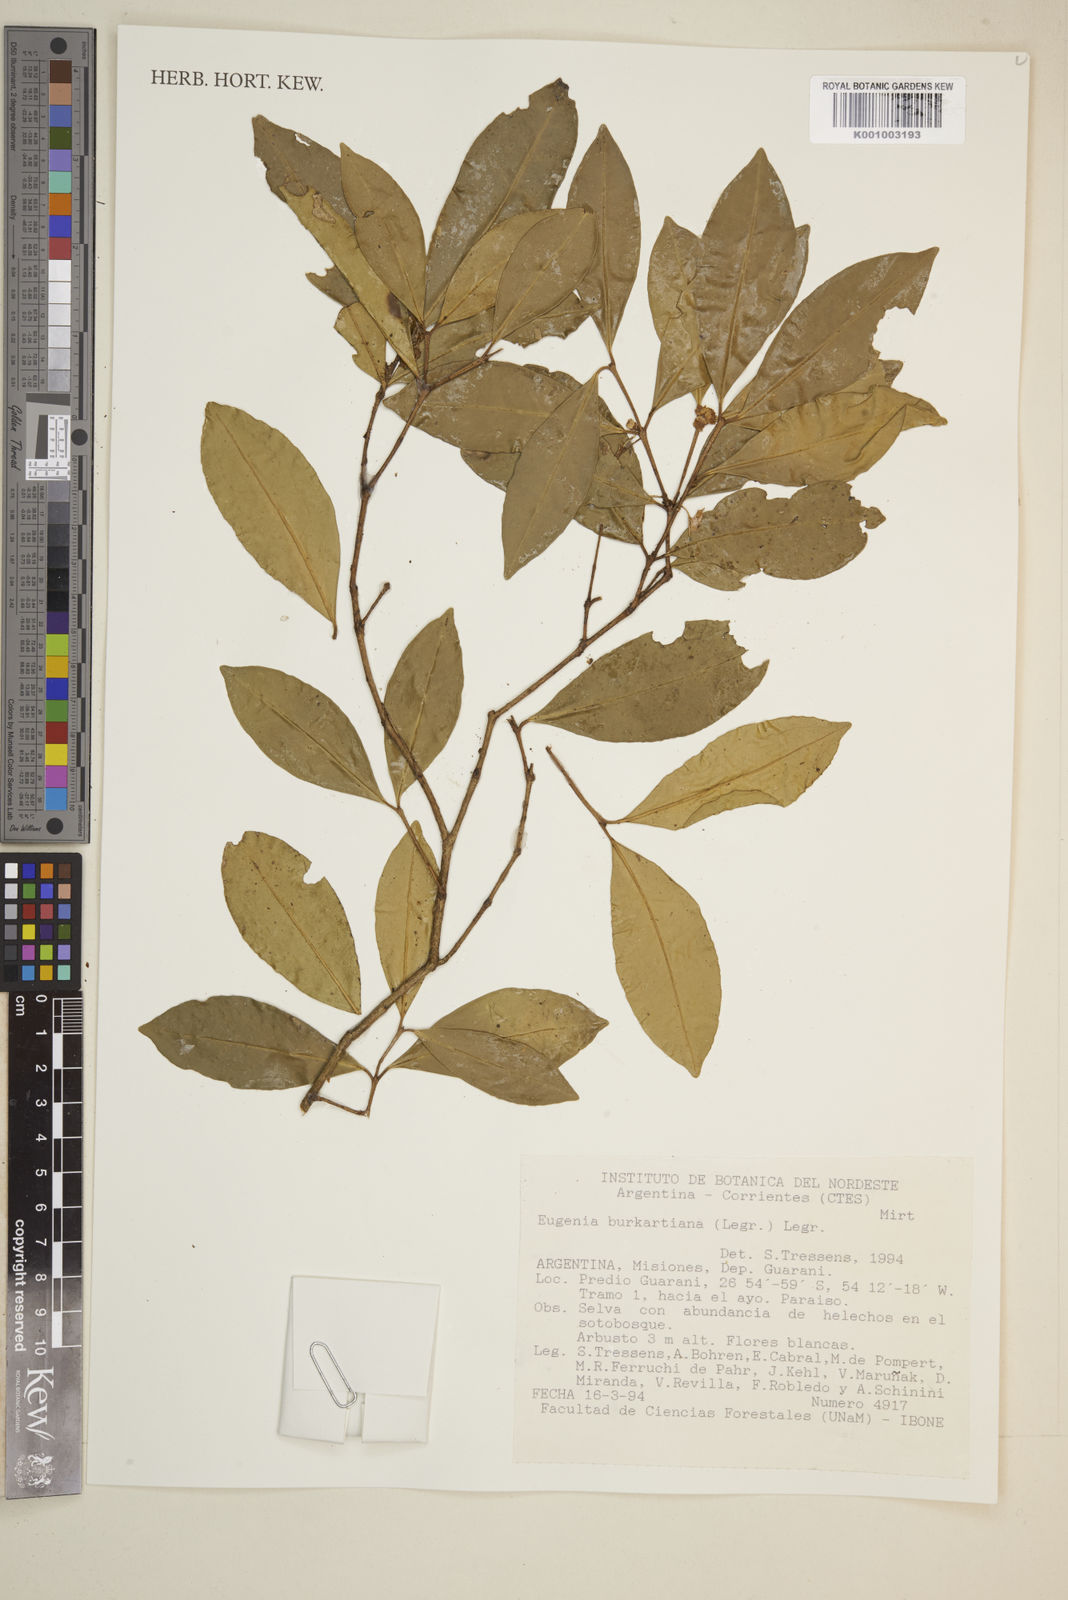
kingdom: Plantae
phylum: Tracheophyta
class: Magnoliopsida
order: Myrtales
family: Myrtaceae
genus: Eugenia
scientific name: Eugenia burkartiana
